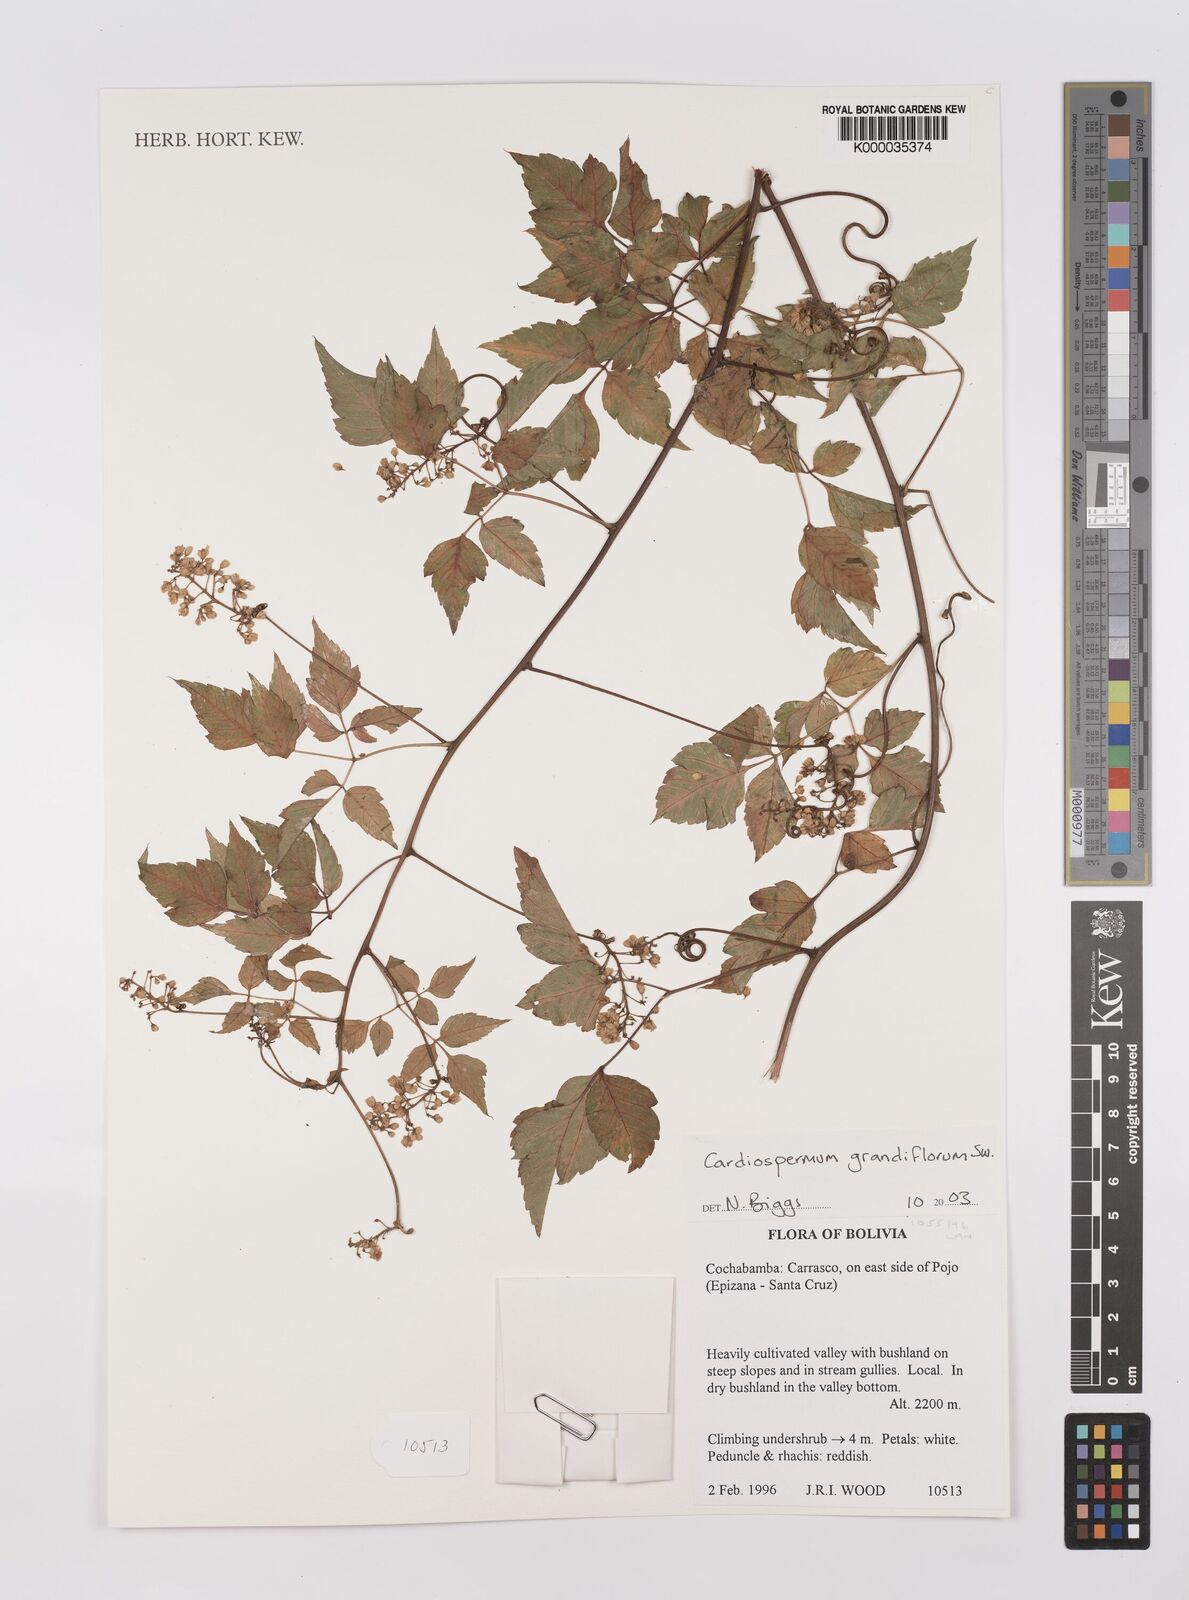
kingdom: Plantae
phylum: Tracheophyta
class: Magnoliopsida
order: Sapindales
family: Sapindaceae
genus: Cardiospermum
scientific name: Cardiospermum grandiflorum
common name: Balloon vine
